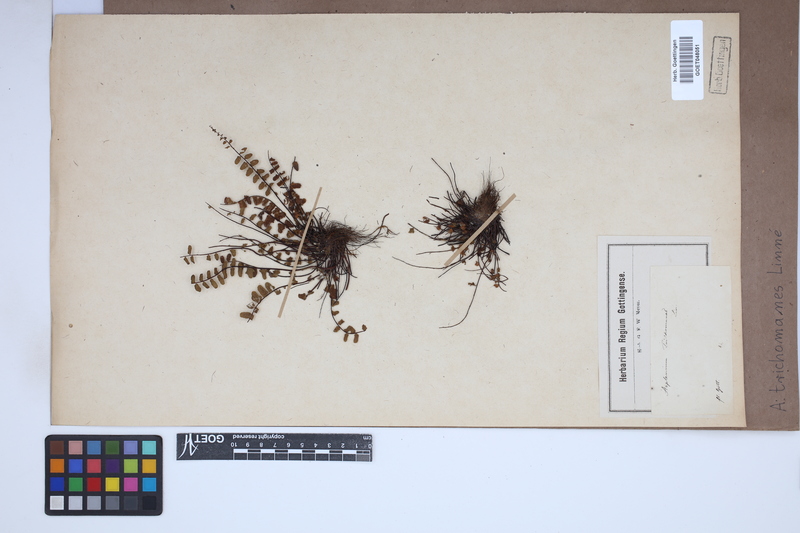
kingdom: Plantae
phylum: Tracheophyta
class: Polypodiopsida
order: Polypodiales
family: Aspleniaceae
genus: Asplenium
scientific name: Asplenium trichomanes
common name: Maidenhair spleenwort
